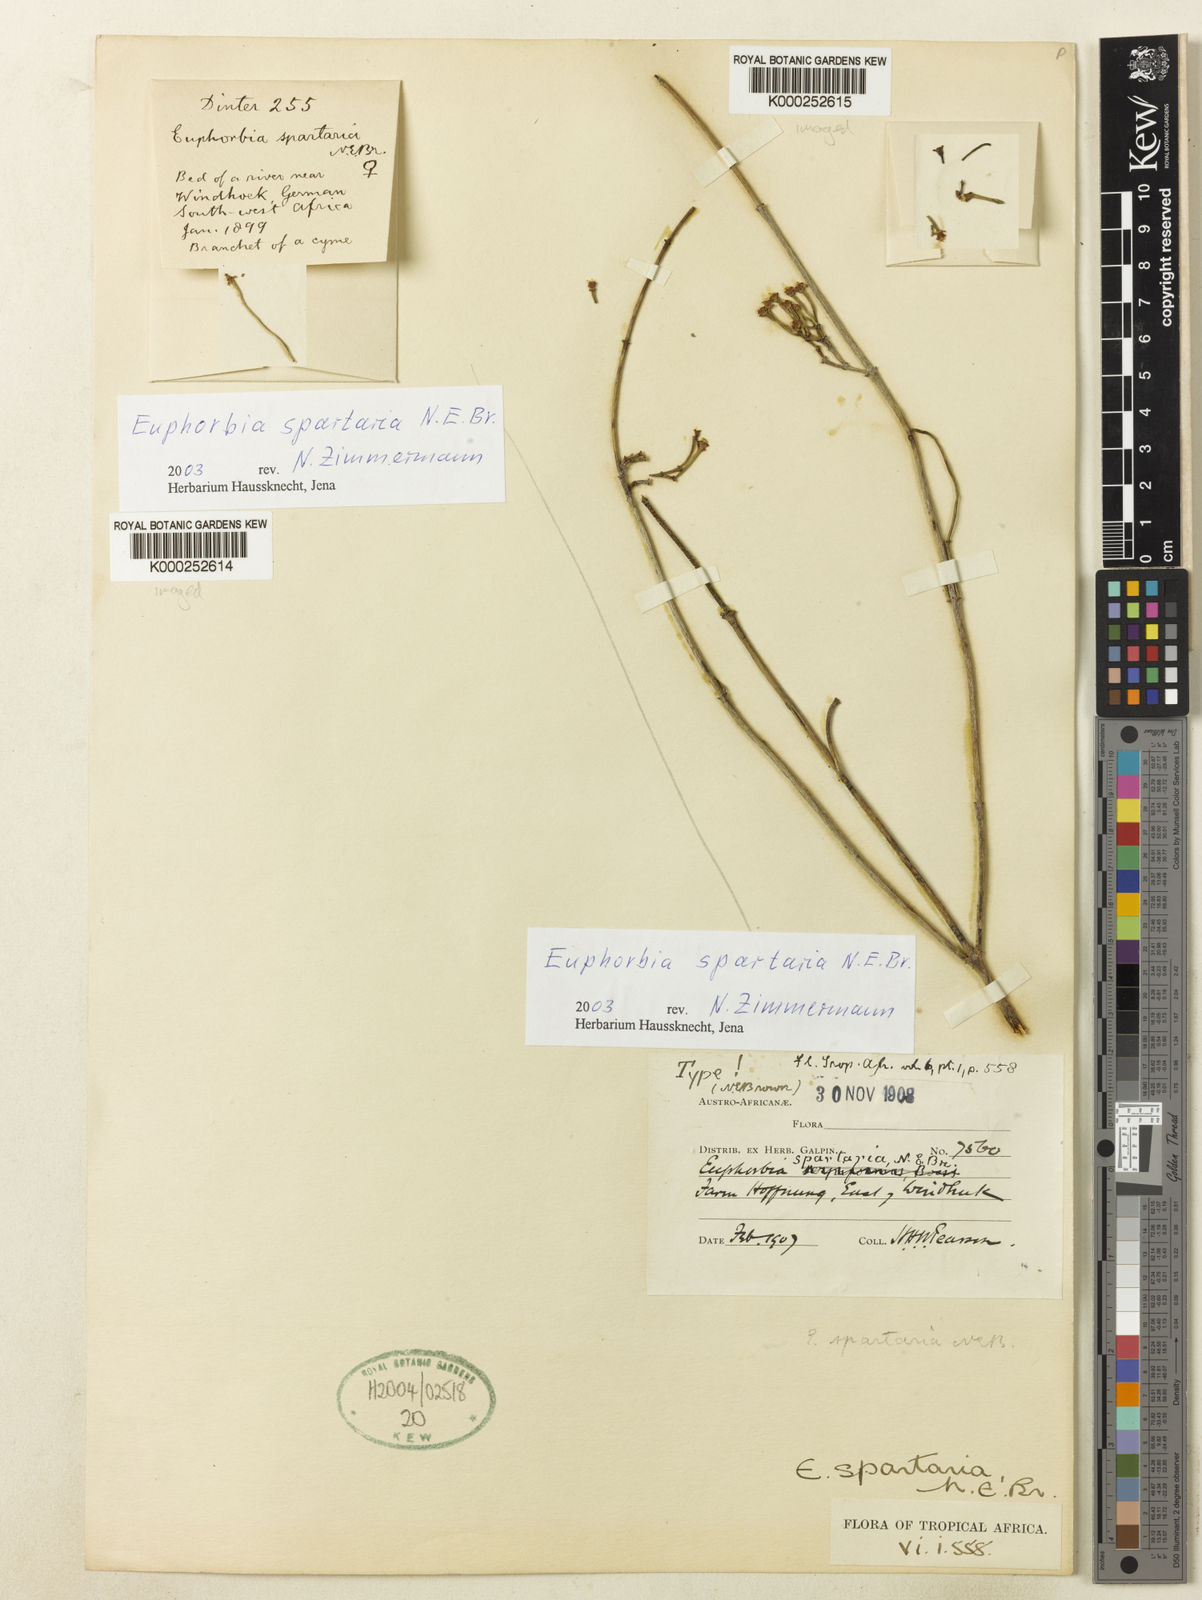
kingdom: Plantae
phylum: Tracheophyta
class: Magnoliopsida
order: Malpighiales
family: Euphorbiaceae
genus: Euphorbia
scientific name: Euphorbia spartaria
